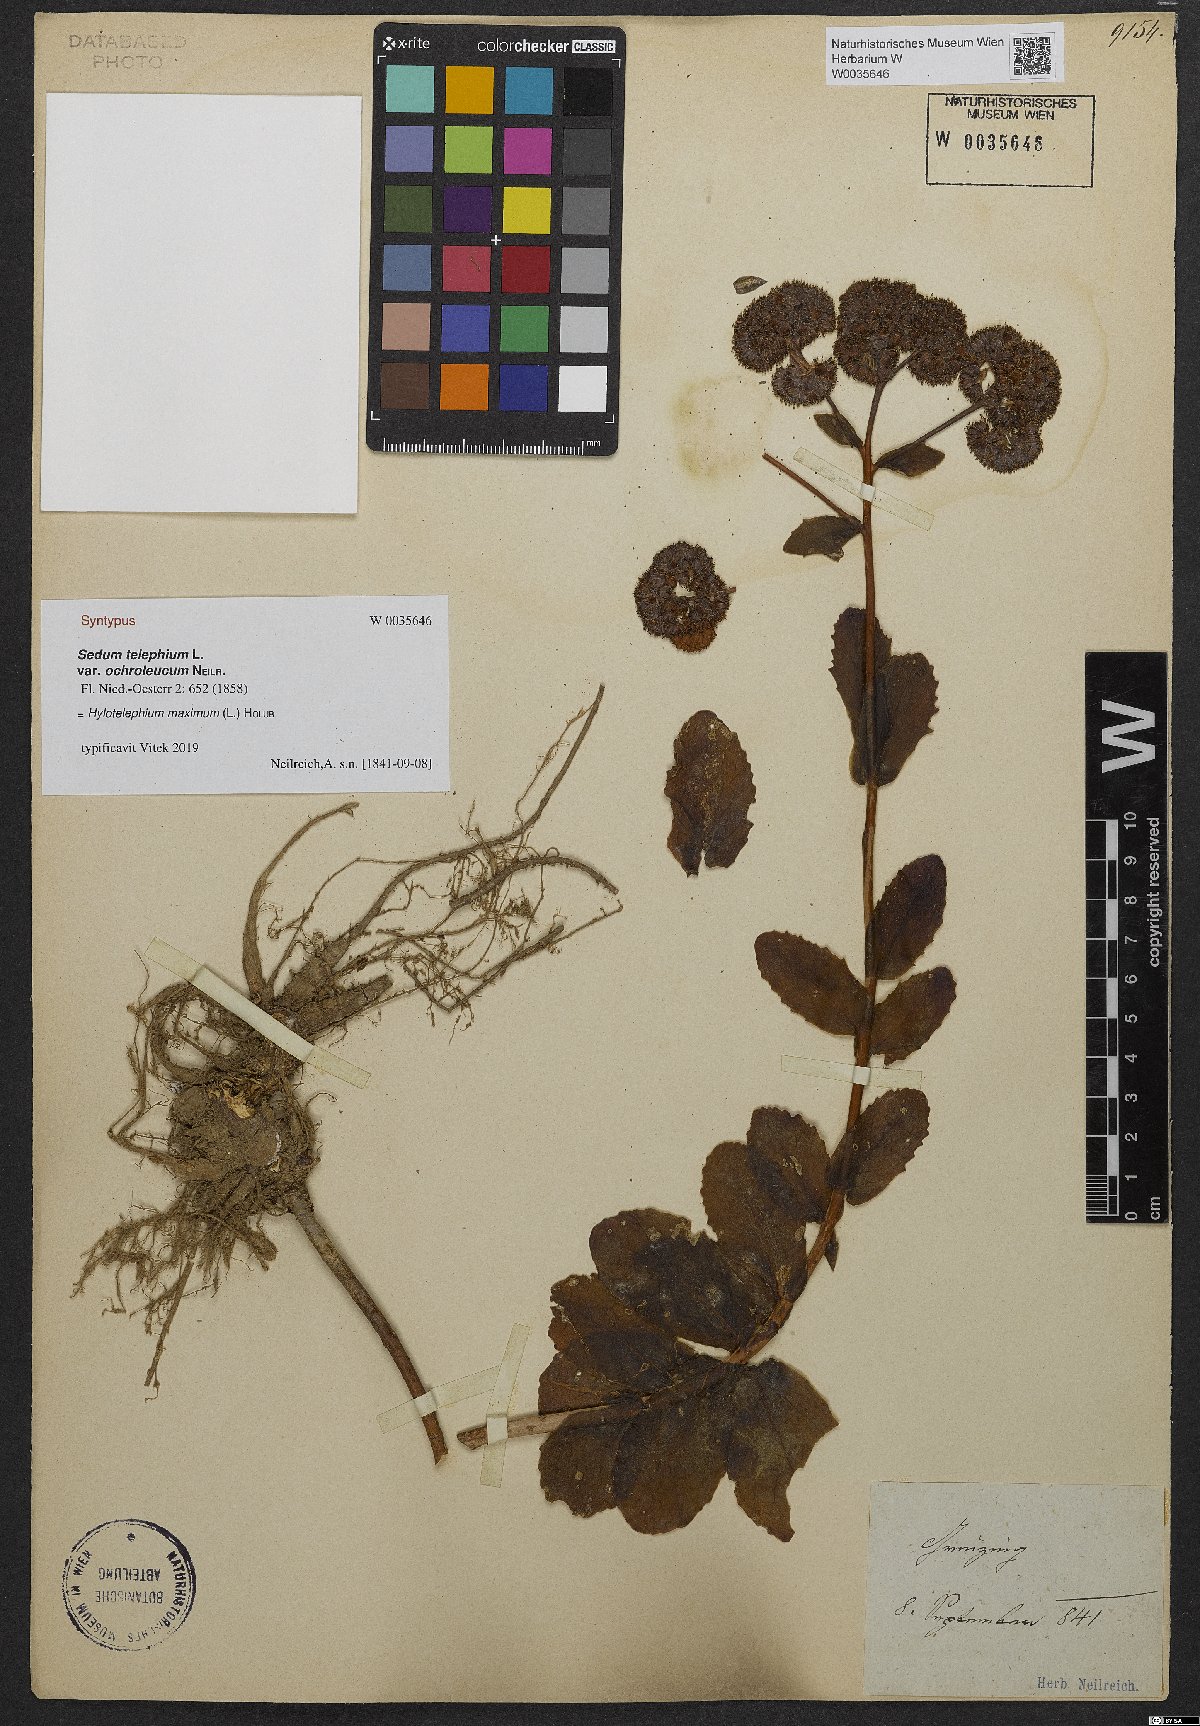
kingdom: Plantae
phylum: Tracheophyta
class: Magnoliopsida
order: Saxifragales
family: Crassulaceae
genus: Hylotelephium
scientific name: Hylotelephium telephium
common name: Live-forever
